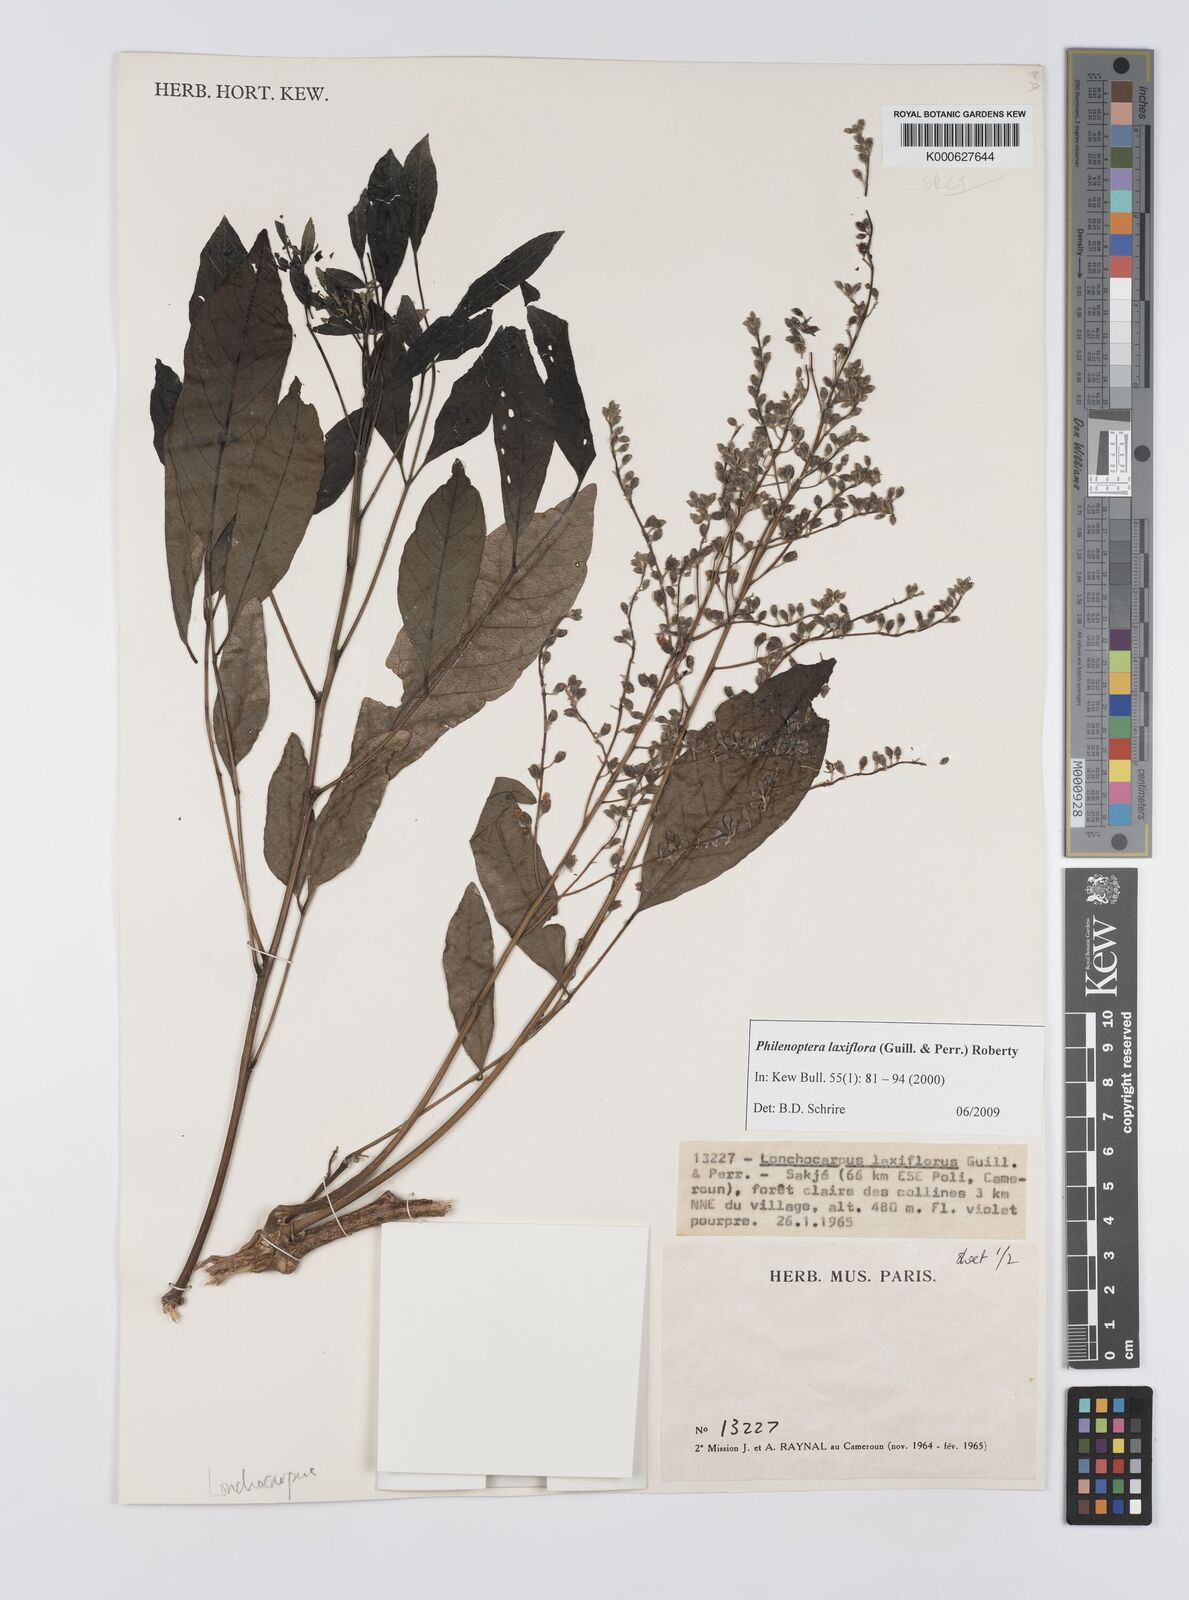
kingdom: Plantae
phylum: Tracheophyta
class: Magnoliopsida
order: Fabales
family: Fabaceae
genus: Philenoptera
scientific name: Philenoptera laxiflora
